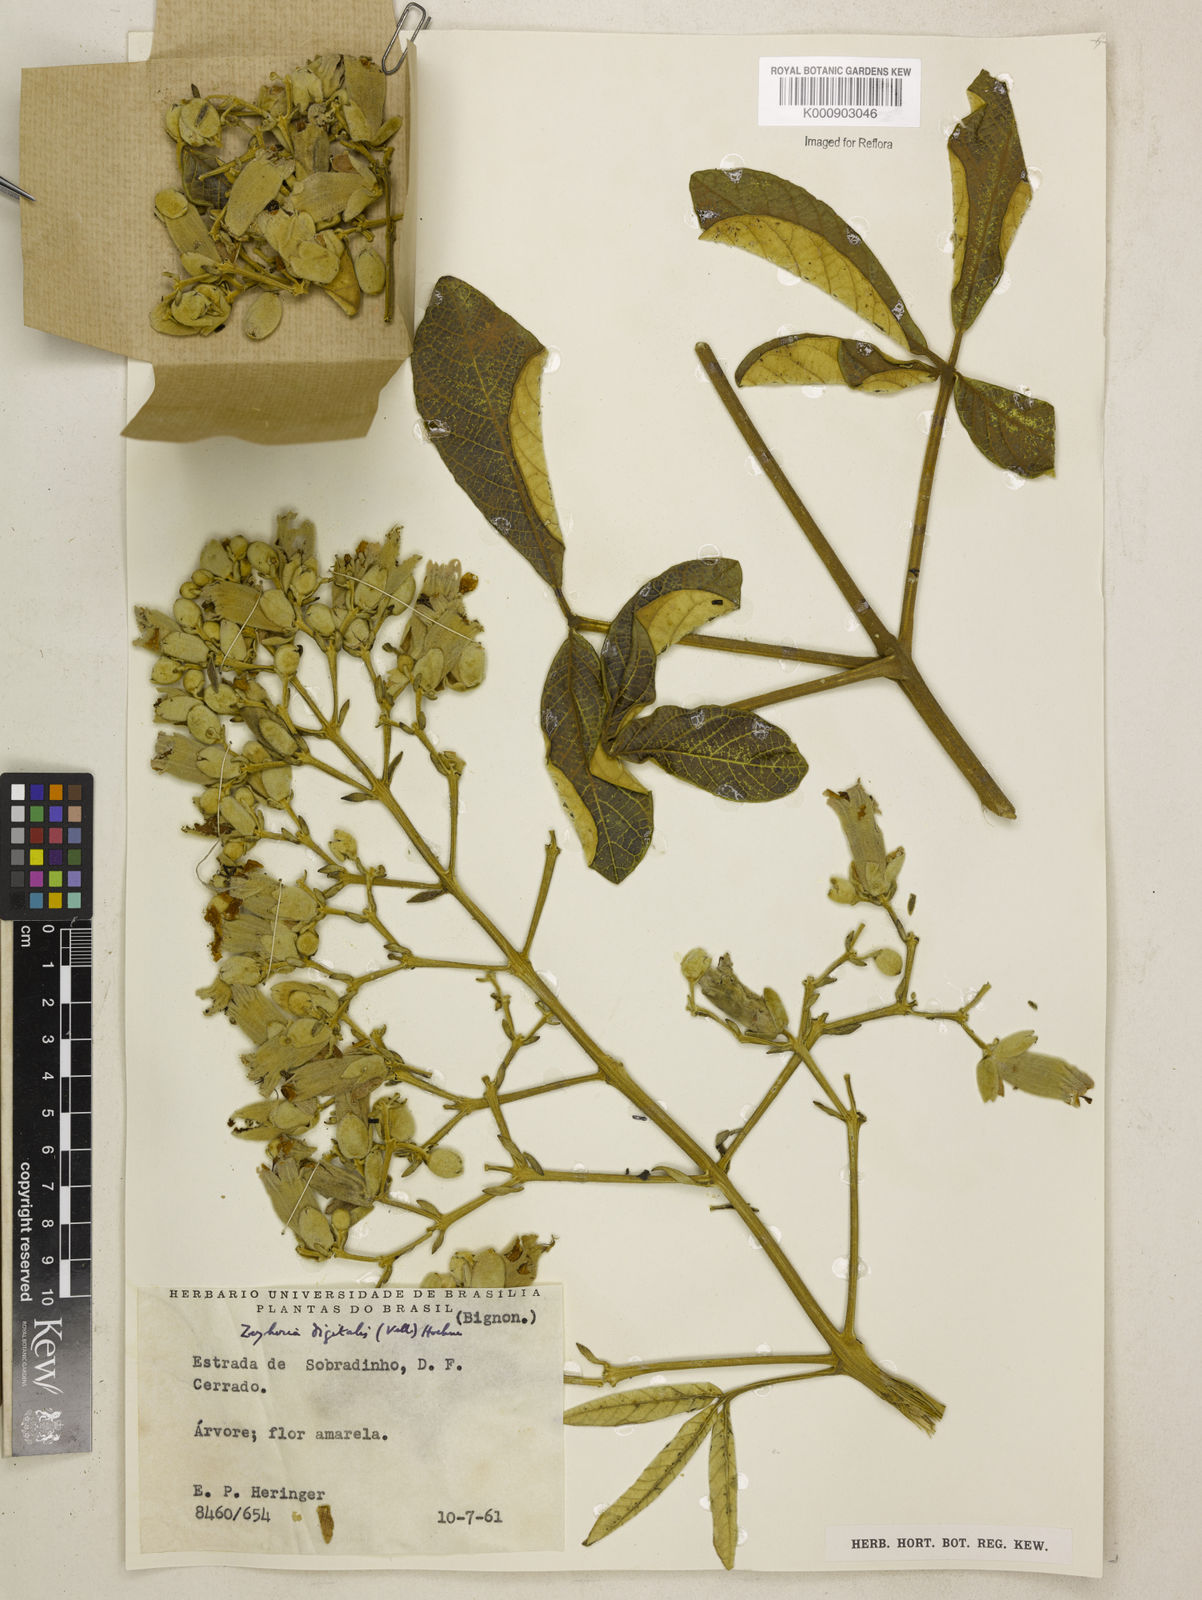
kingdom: Plantae
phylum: Tracheophyta
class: Magnoliopsida
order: Lamiales
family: Bignoniaceae
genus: Zeyheria
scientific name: Zeyheria
